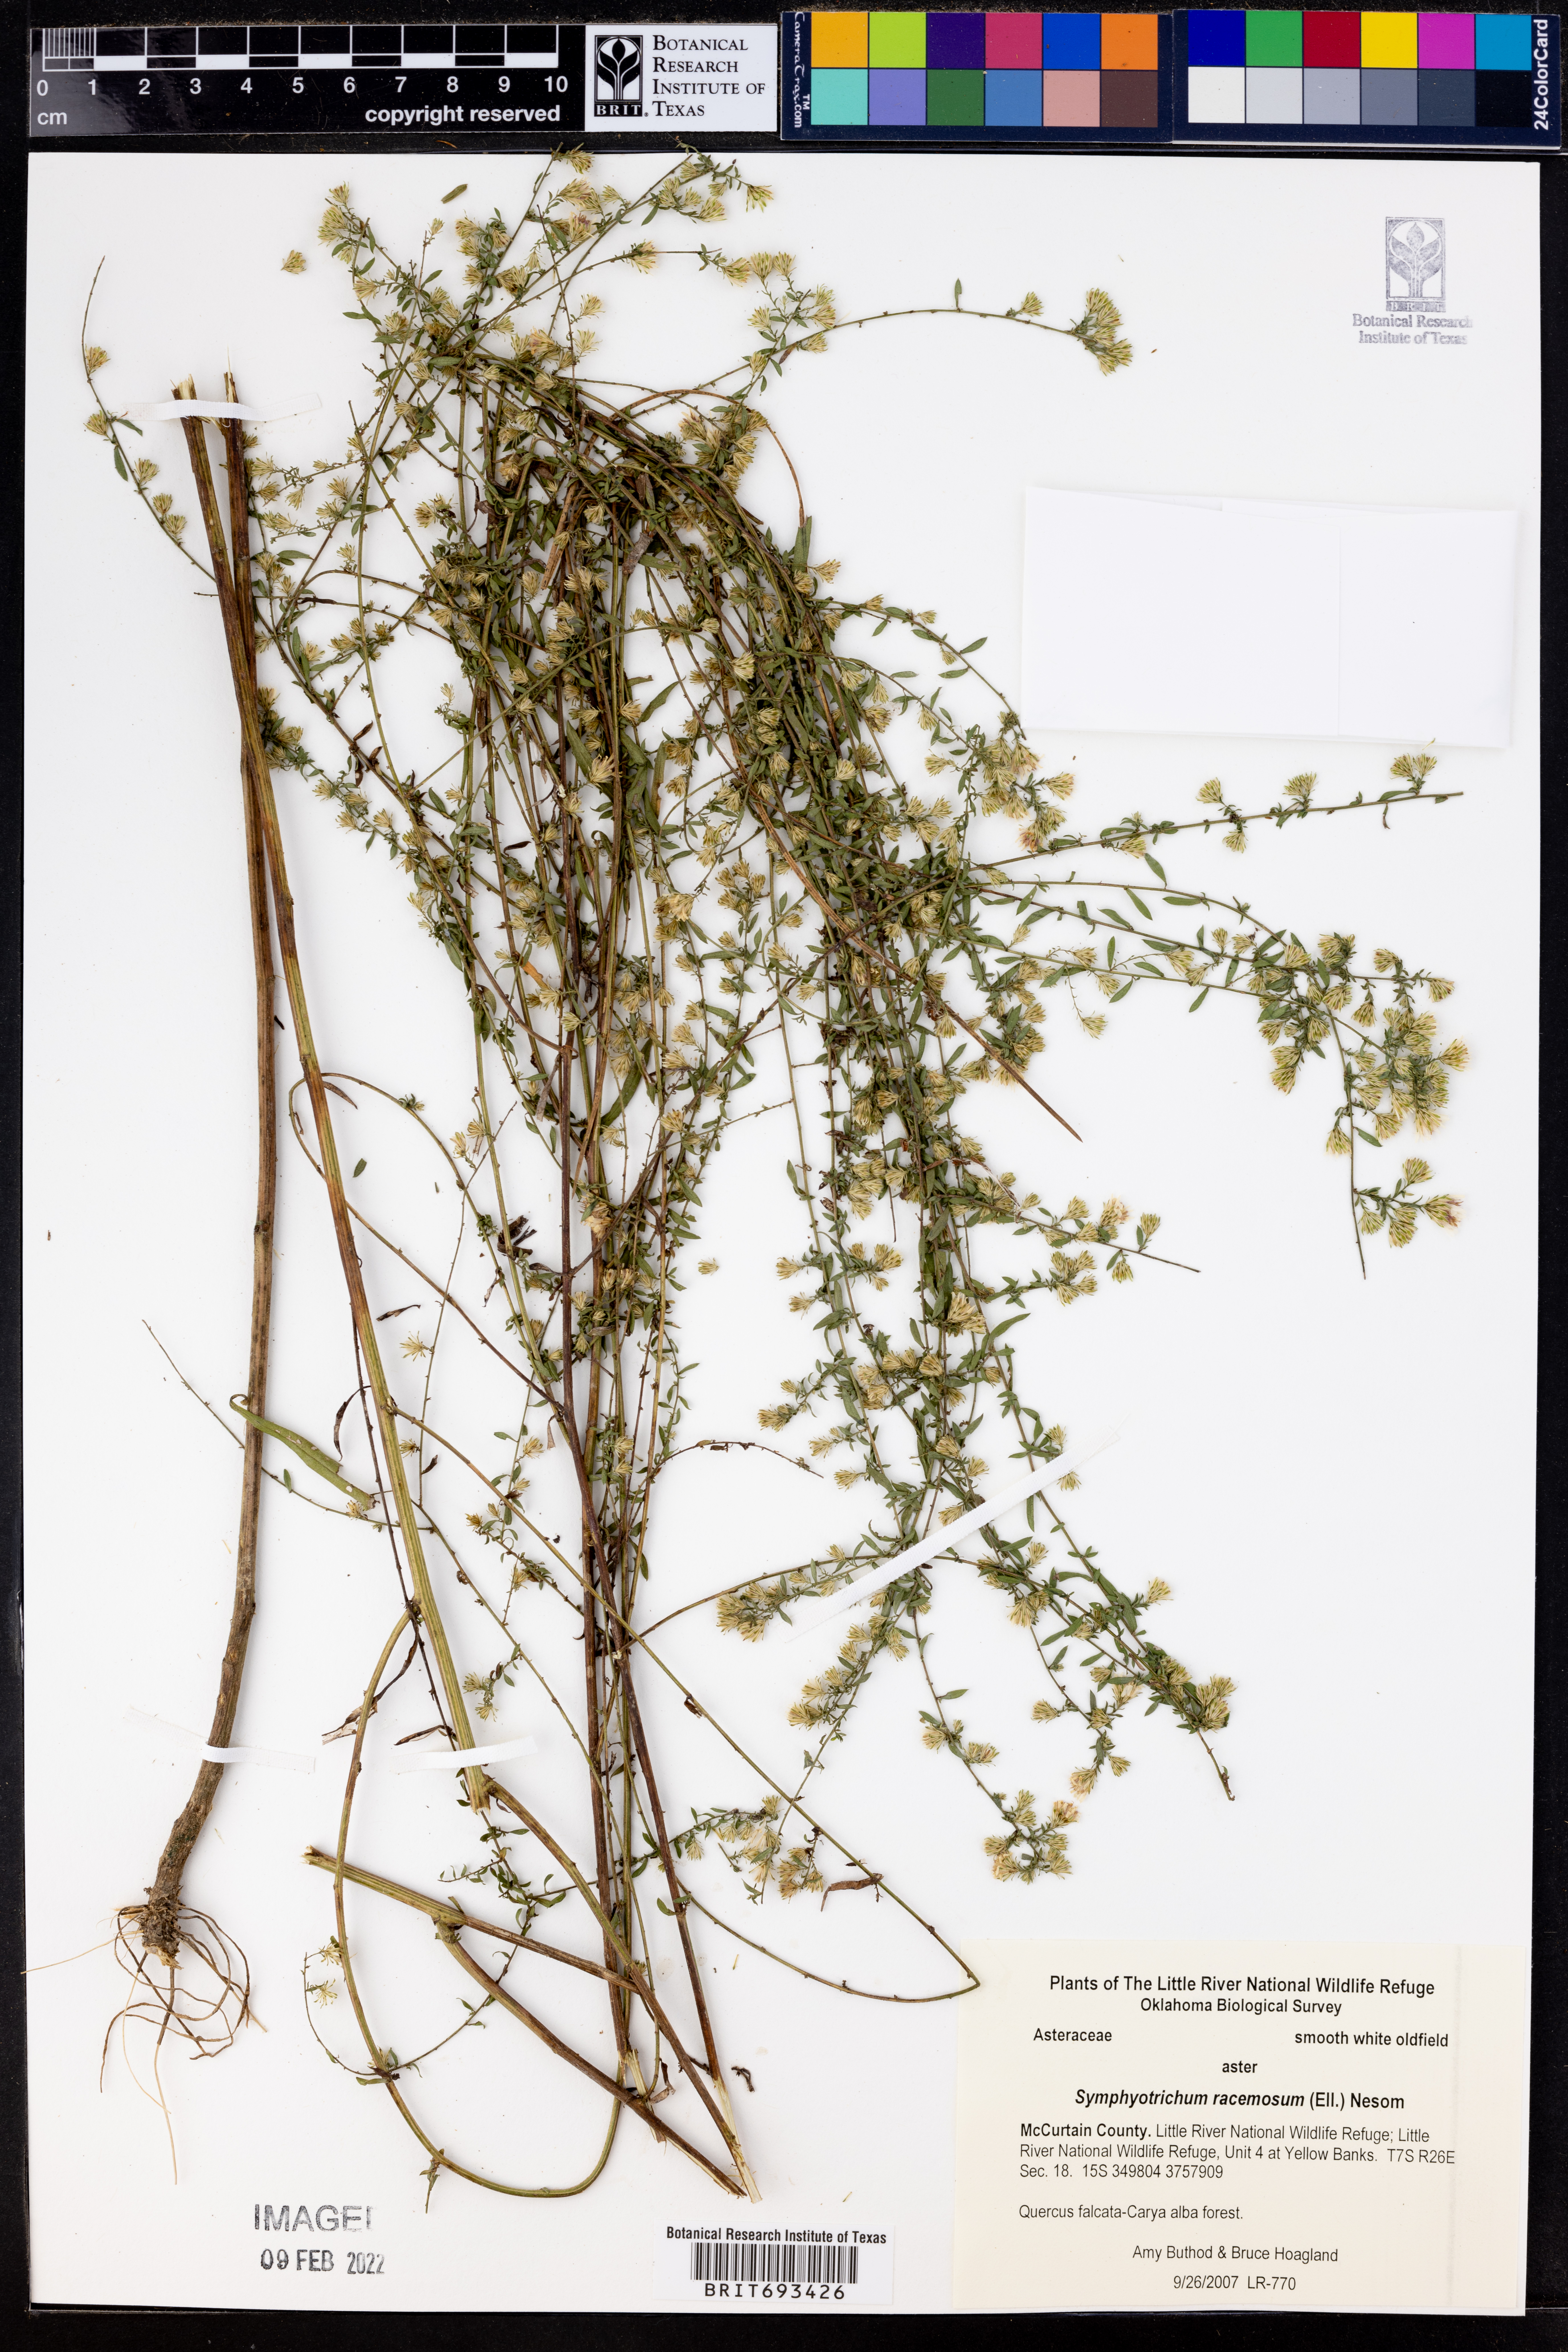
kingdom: Plantae
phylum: Tracheophyta
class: Magnoliopsida
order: Asterales
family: Asteraceae
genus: Symphyotrichum
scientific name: Symphyotrichum racemosum
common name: Small white aster
